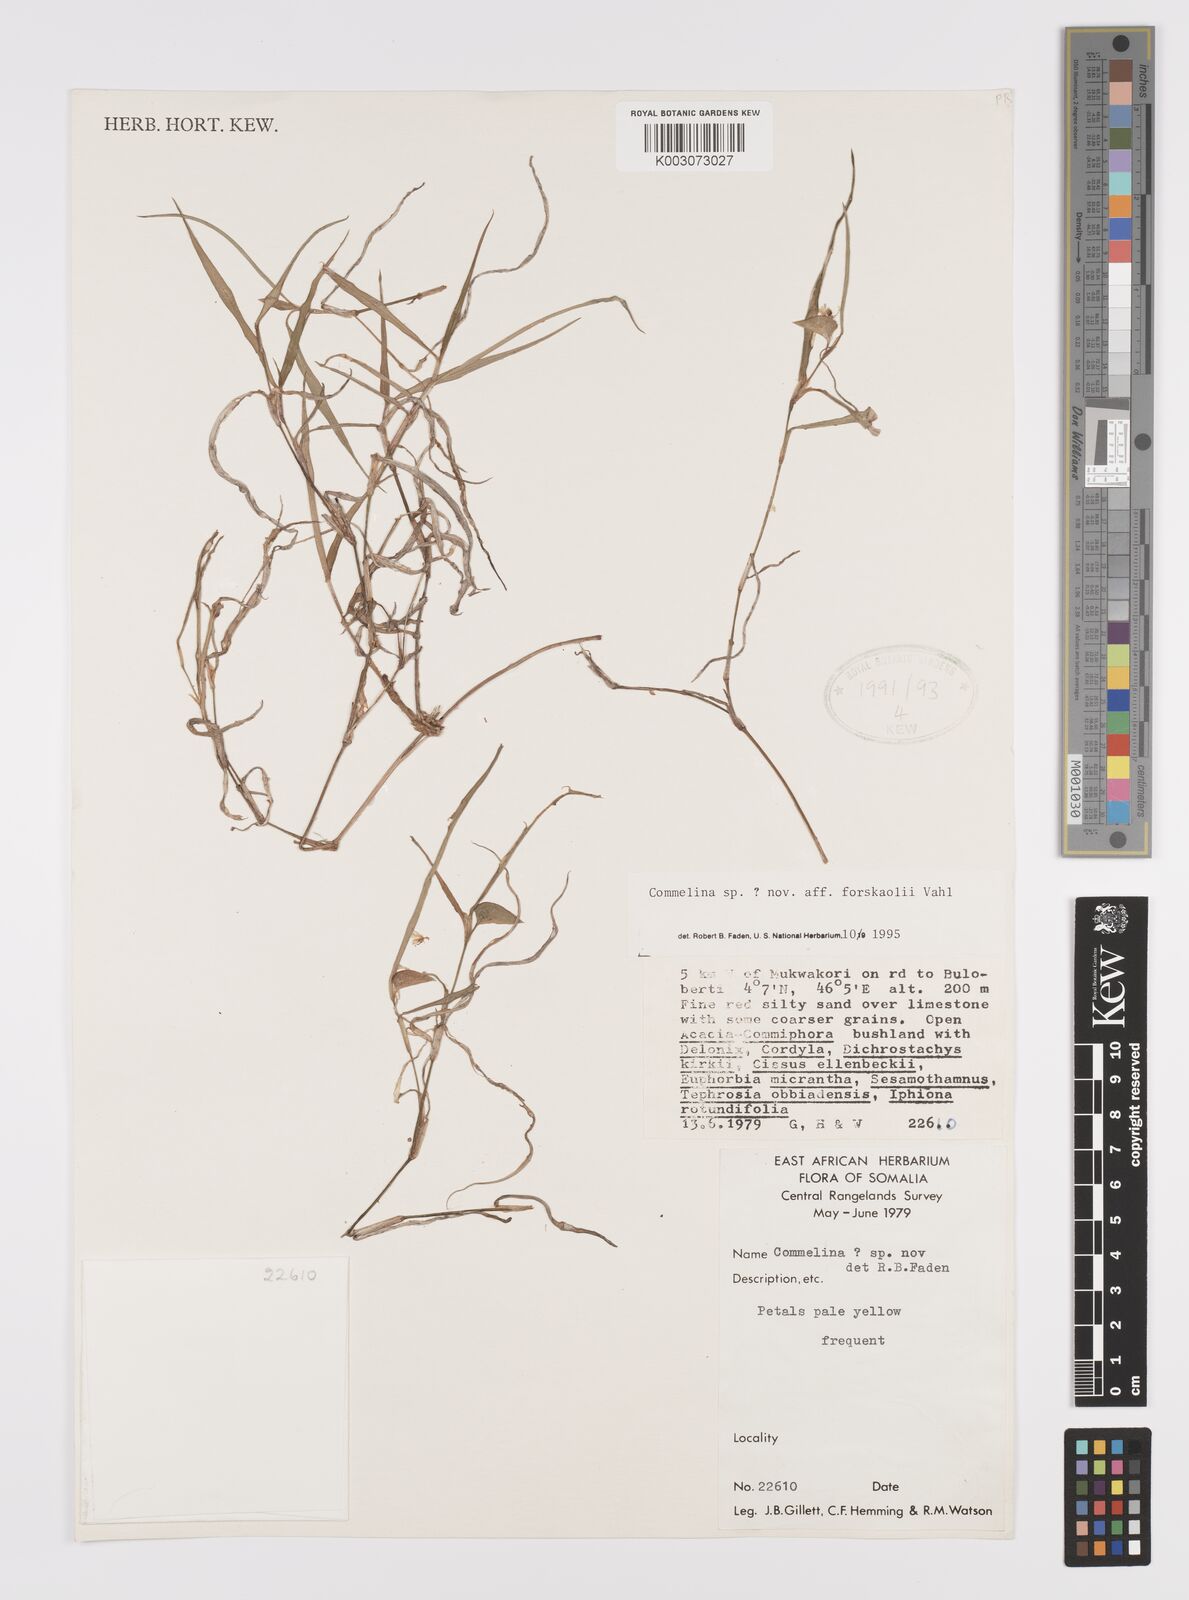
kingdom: Plantae
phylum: Tracheophyta
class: Liliopsida
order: Commelinales
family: Commelinaceae
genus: Commelina
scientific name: Commelina forskaolii
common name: Rat's ear
